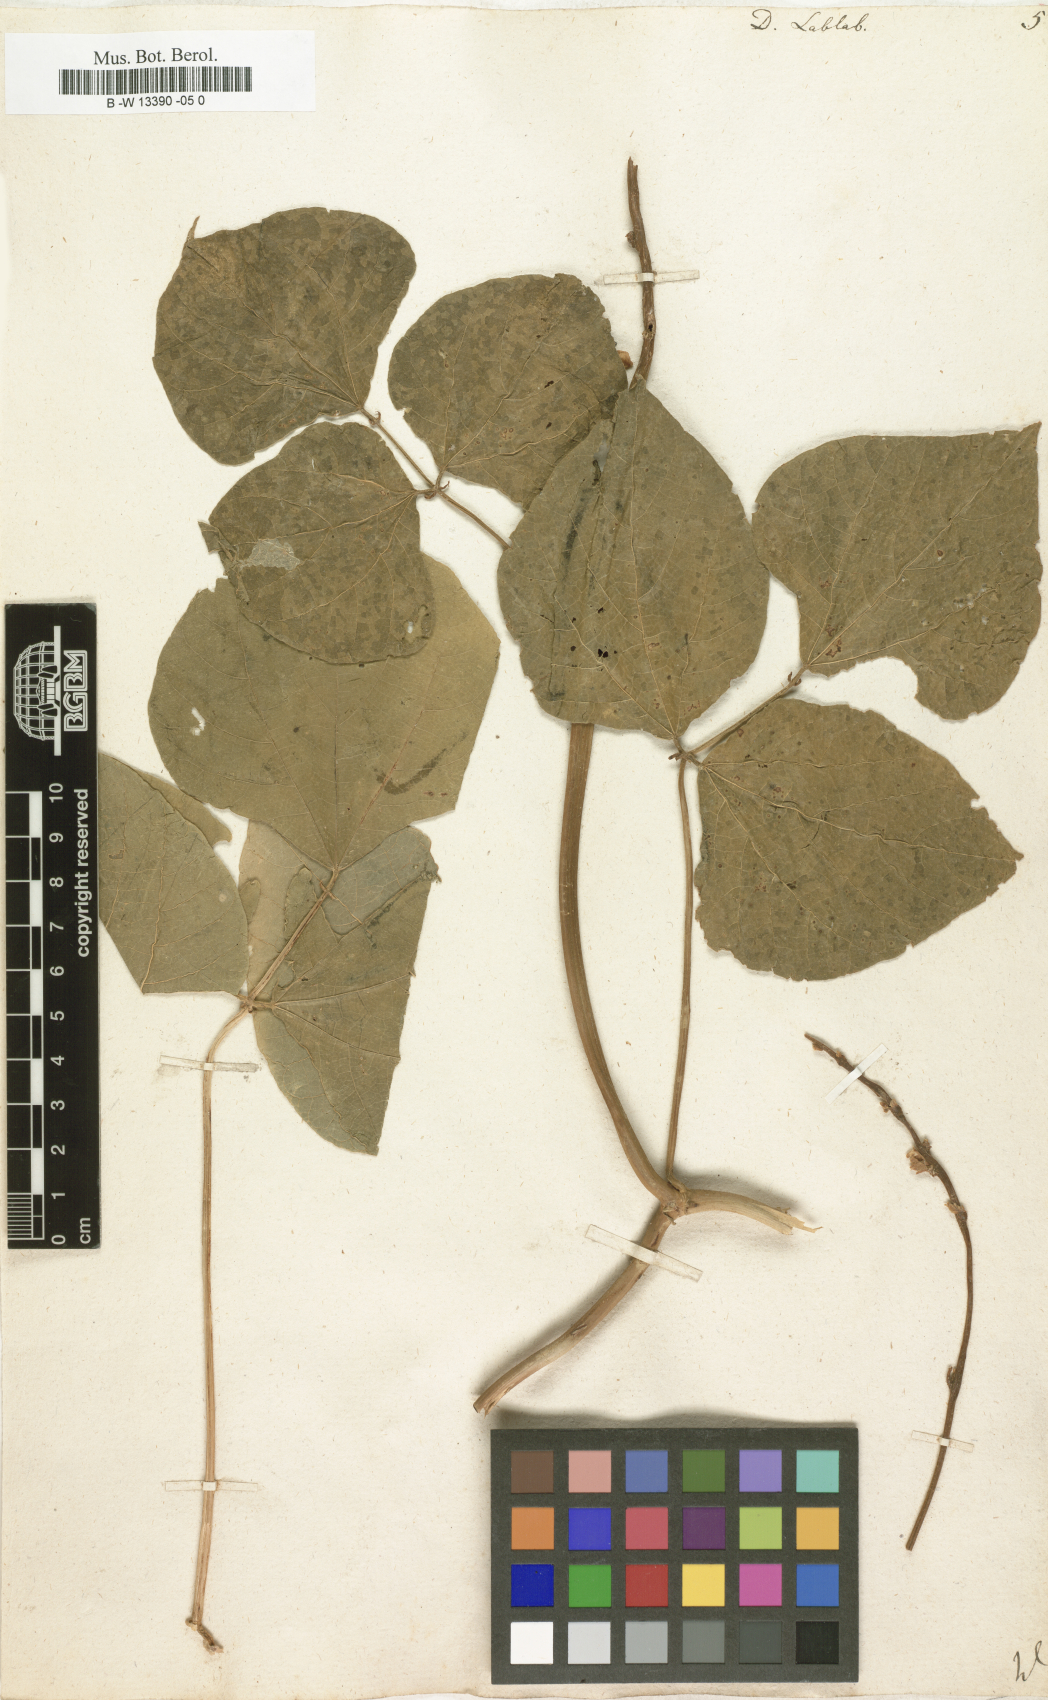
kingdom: Plantae
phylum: Tracheophyta
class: Magnoliopsida
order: Fabales
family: Fabaceae
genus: Lablab
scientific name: Lablab purpureus
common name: Lablab-bean
